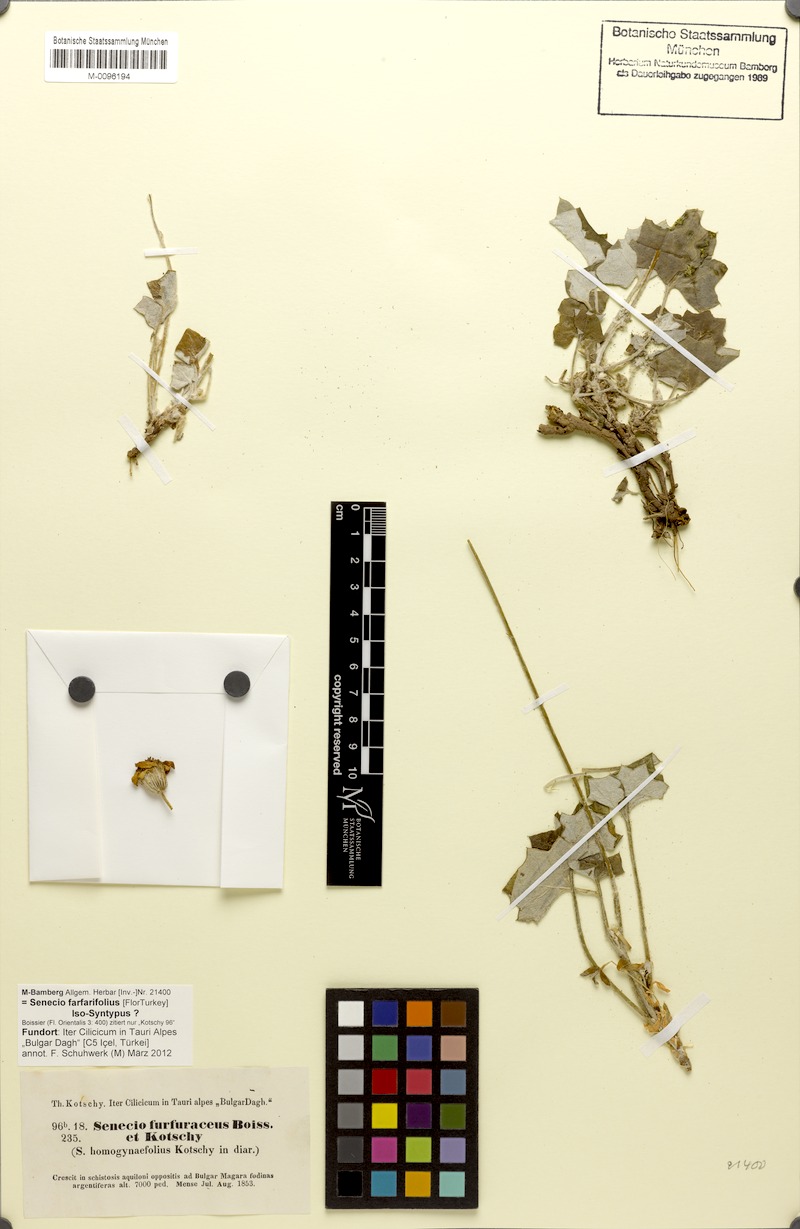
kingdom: Plantae
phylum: Tracheophyta
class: Magnoliopsida
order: Asterales
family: Asteraceae
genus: Turanecio
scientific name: Turanecio farfarifolius
